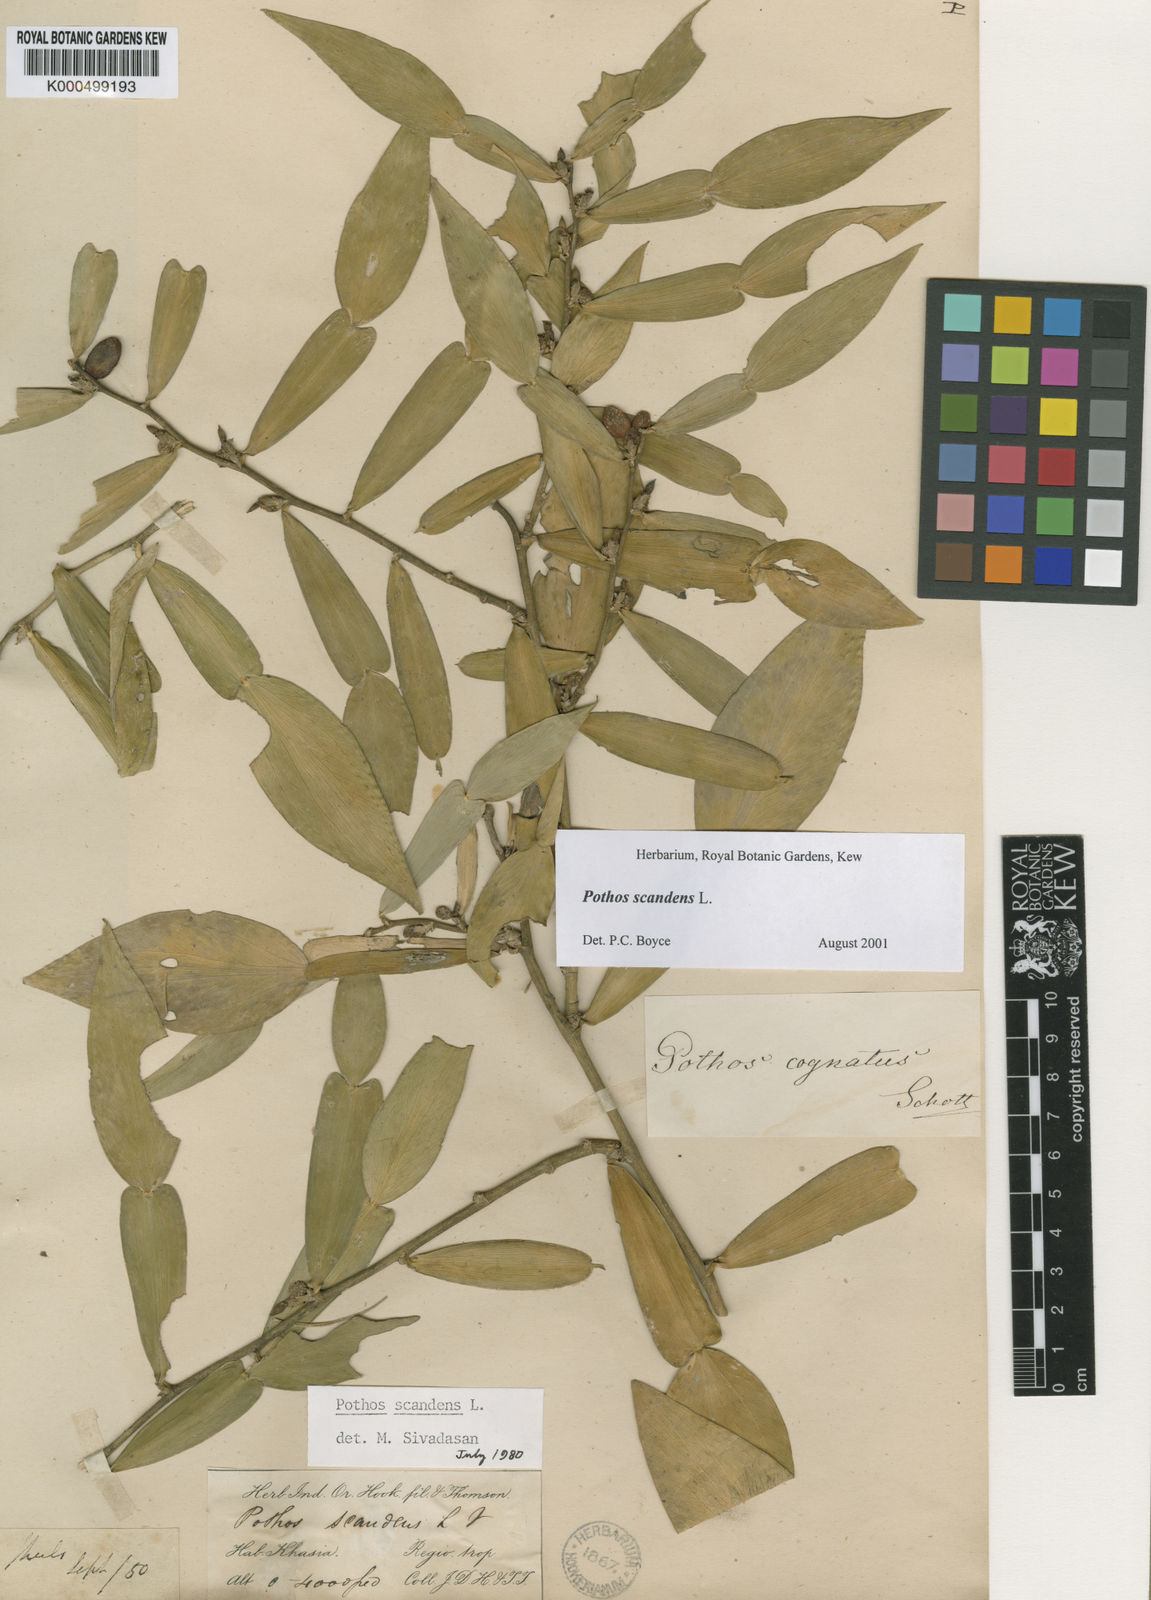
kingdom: Plantae
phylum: Tracheophyta
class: Liliopsida
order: Alismatales
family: Araceae
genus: Pothos
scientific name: Pothos scandens
